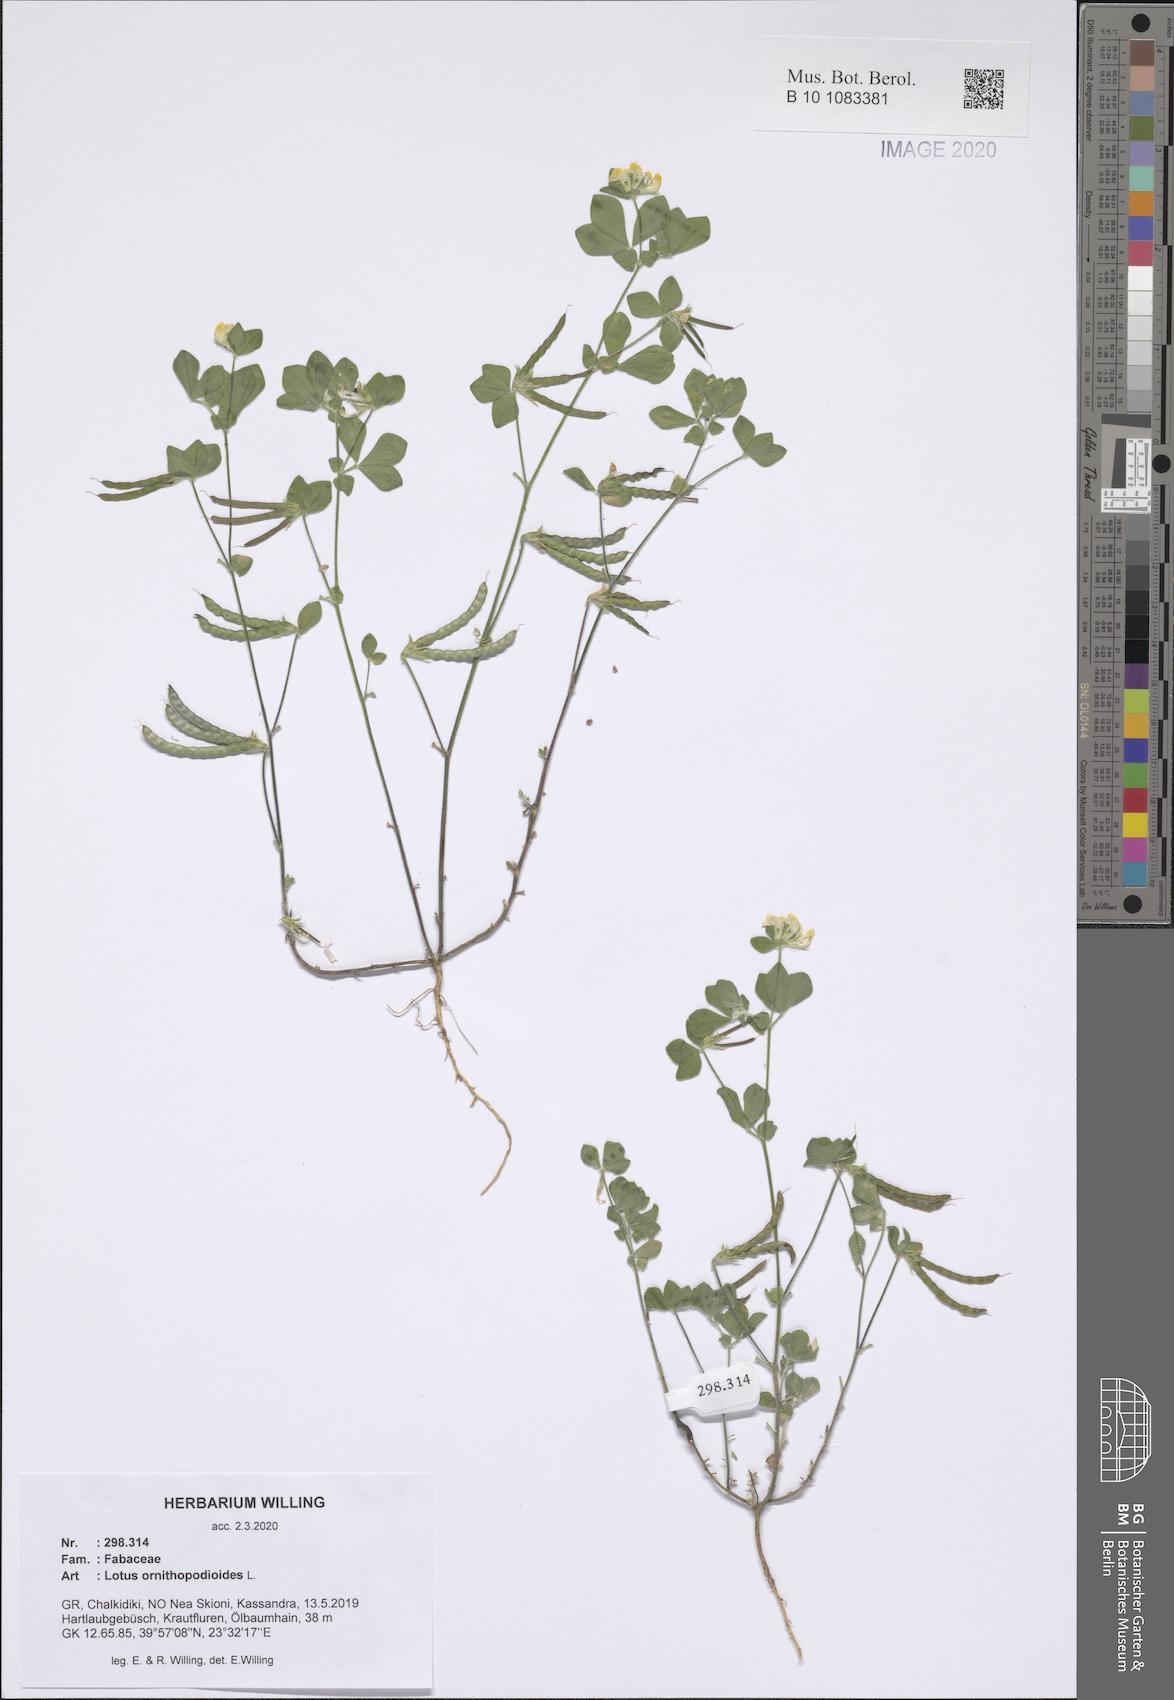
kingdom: Plantae
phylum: Tracheophyta
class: Magnoliopsida
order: Fabales
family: Fabaceae
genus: Lotus
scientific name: Lotus ornithopodioides
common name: Southern bird's-foot trefoil
